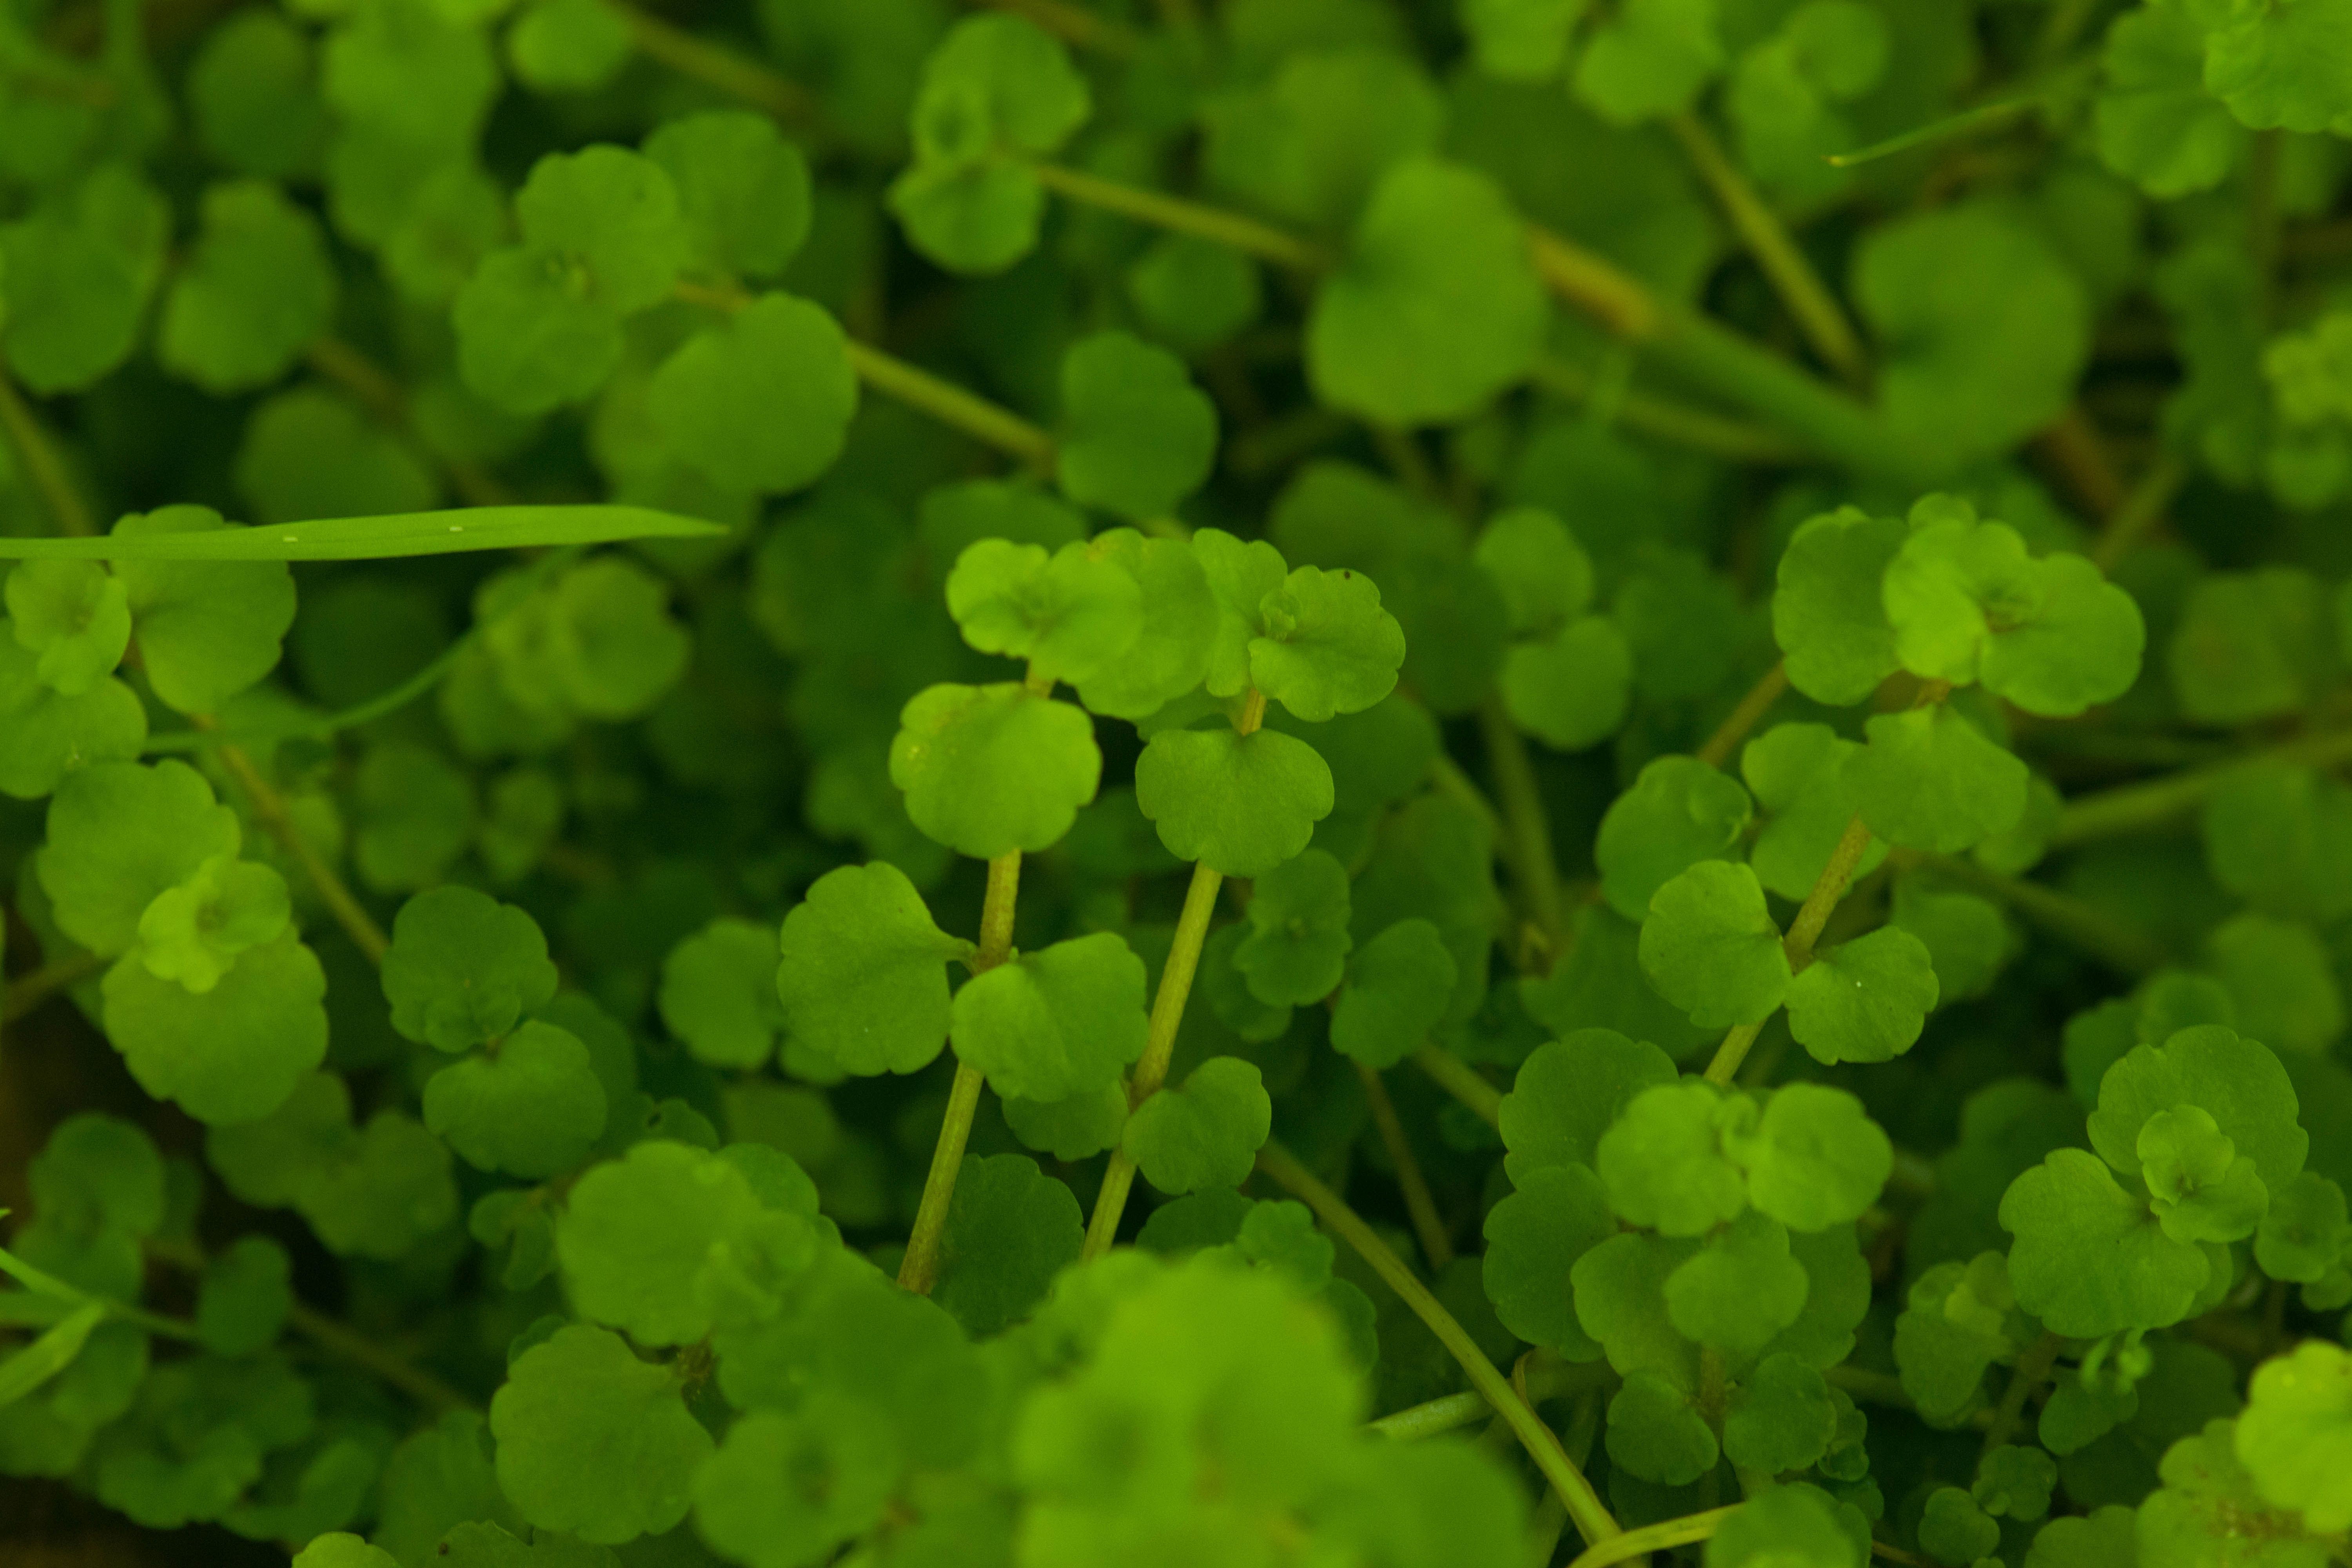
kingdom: Plantae
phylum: Tracheophyta
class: Magnoliopsida
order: Saxifragales
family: Saxifragaceae
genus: Chrysosplenium
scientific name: Chrysosplenium americanum
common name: American golden-saxifrage
